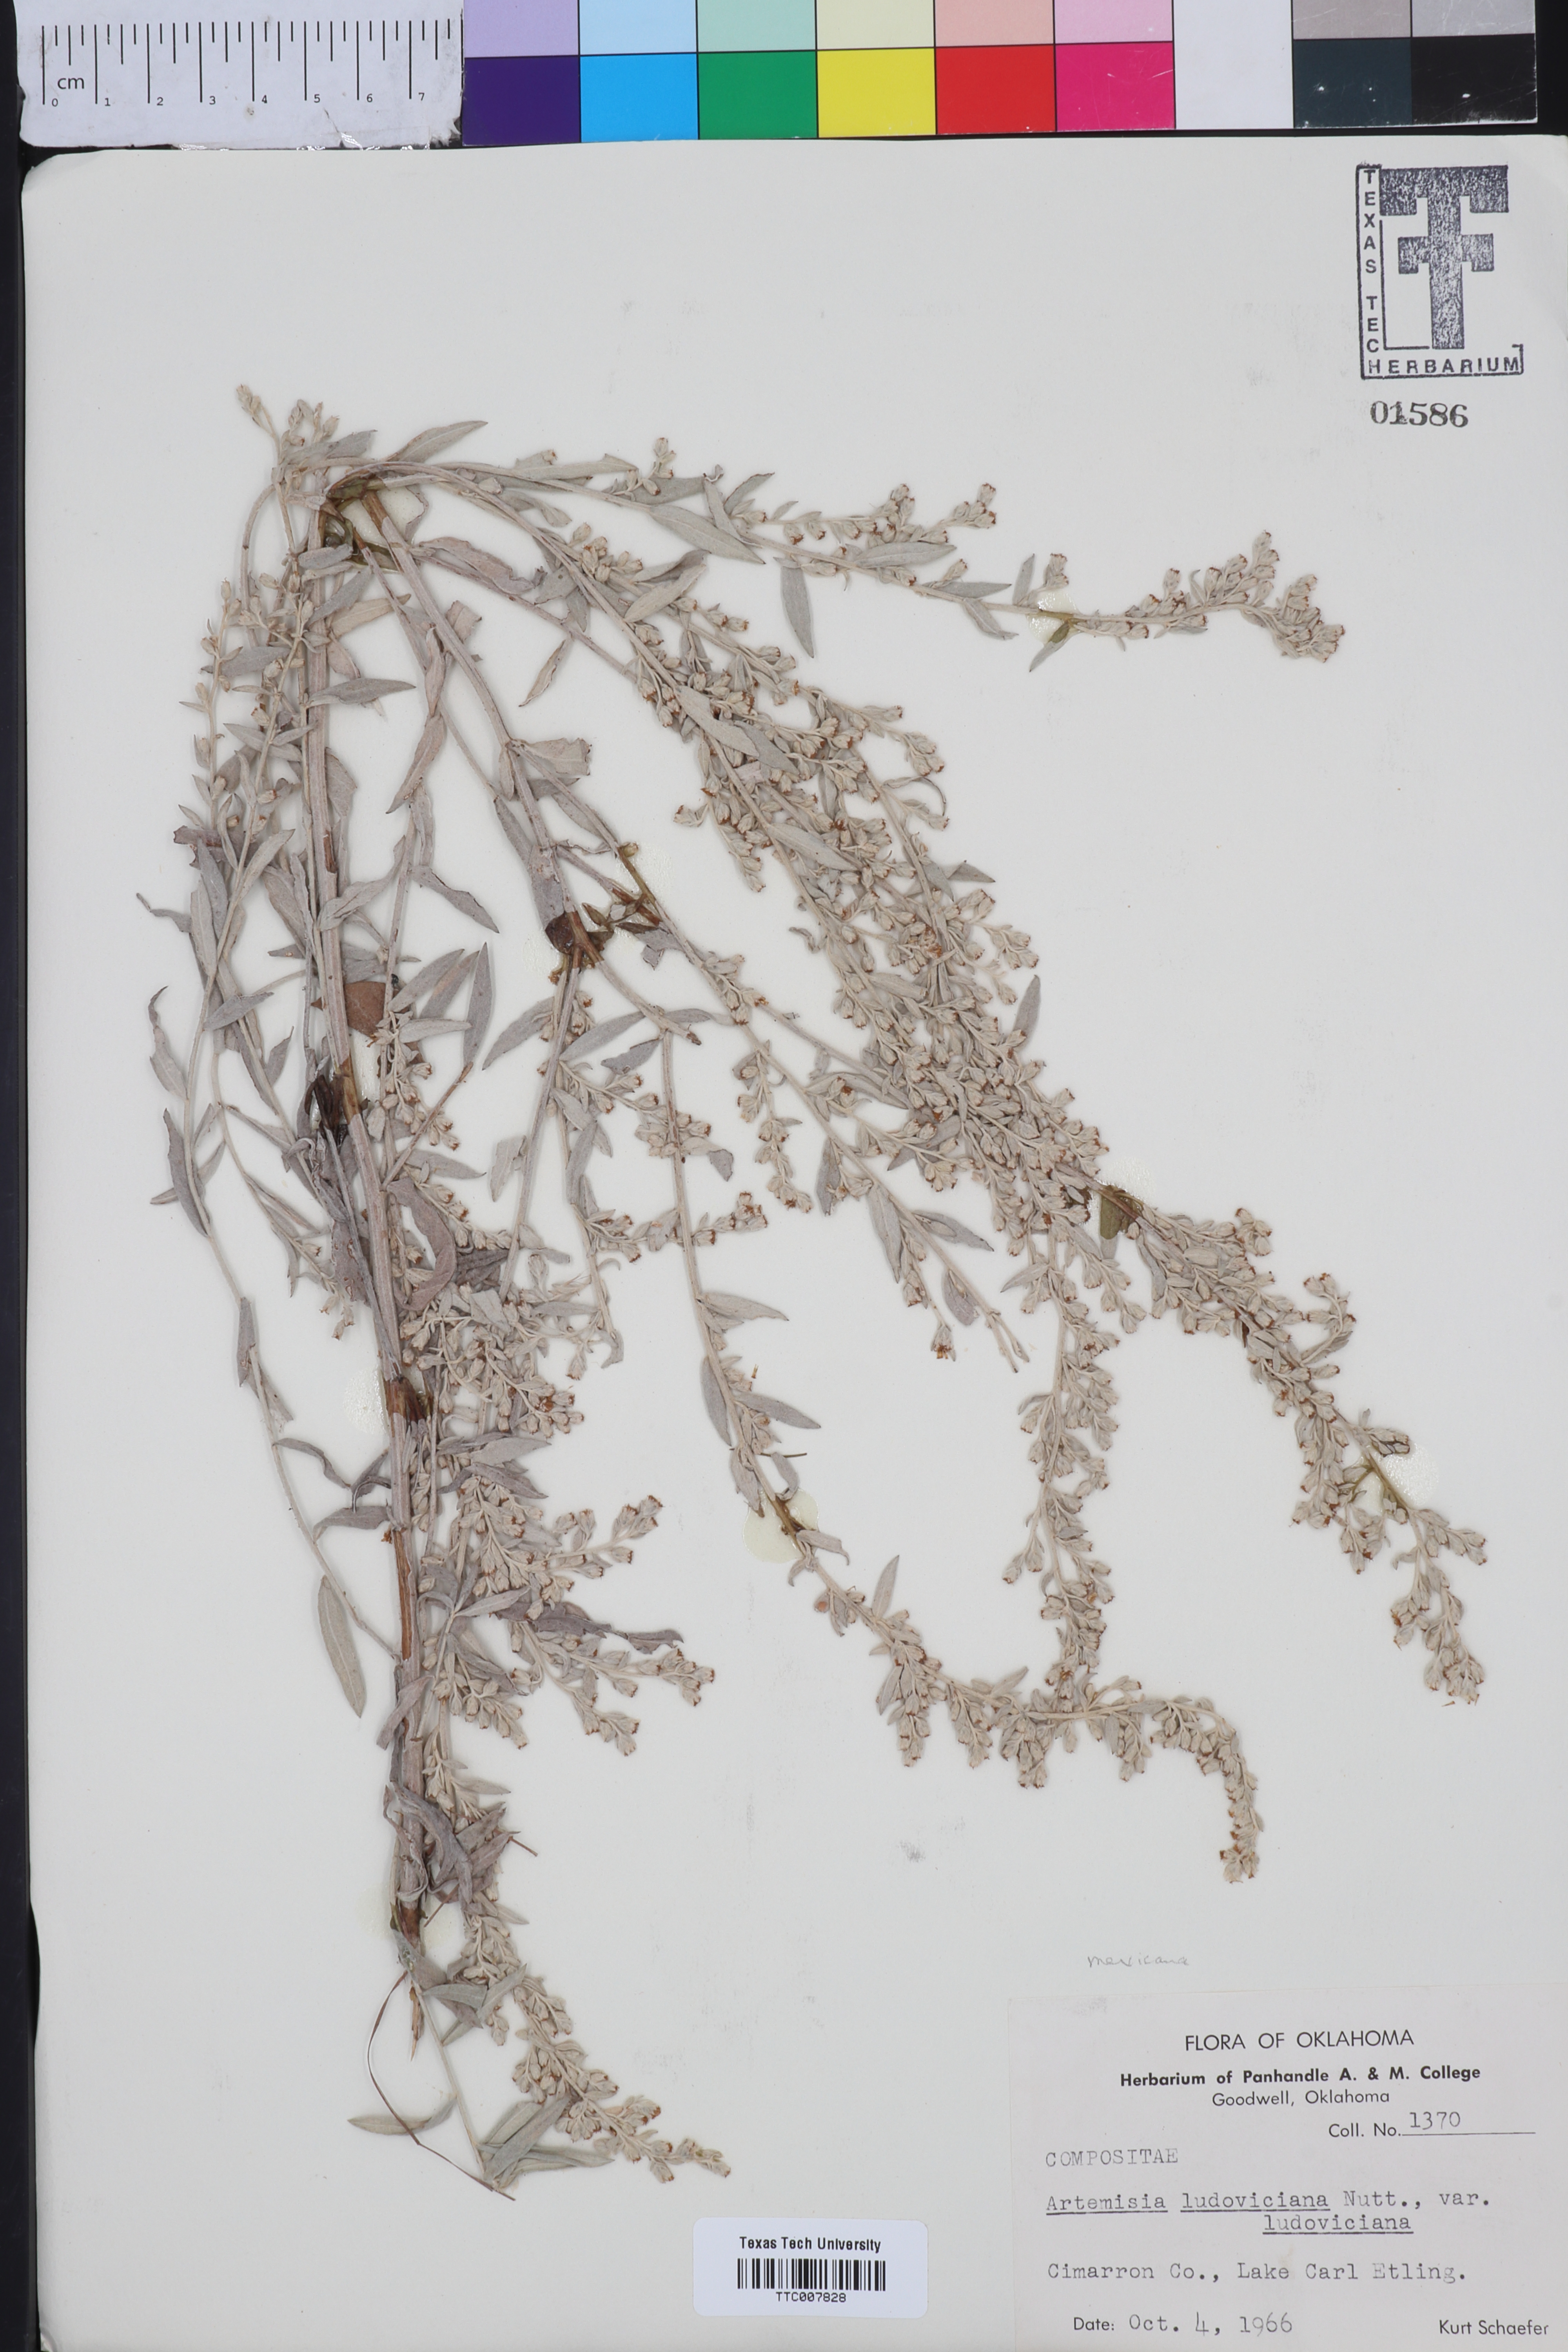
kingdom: Plantae
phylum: Tracheophyta
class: Magnoliopsida
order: Asterales
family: Asteraceae
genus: Artemisia
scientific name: Artemisia ludoviciana
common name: Western mugwort
